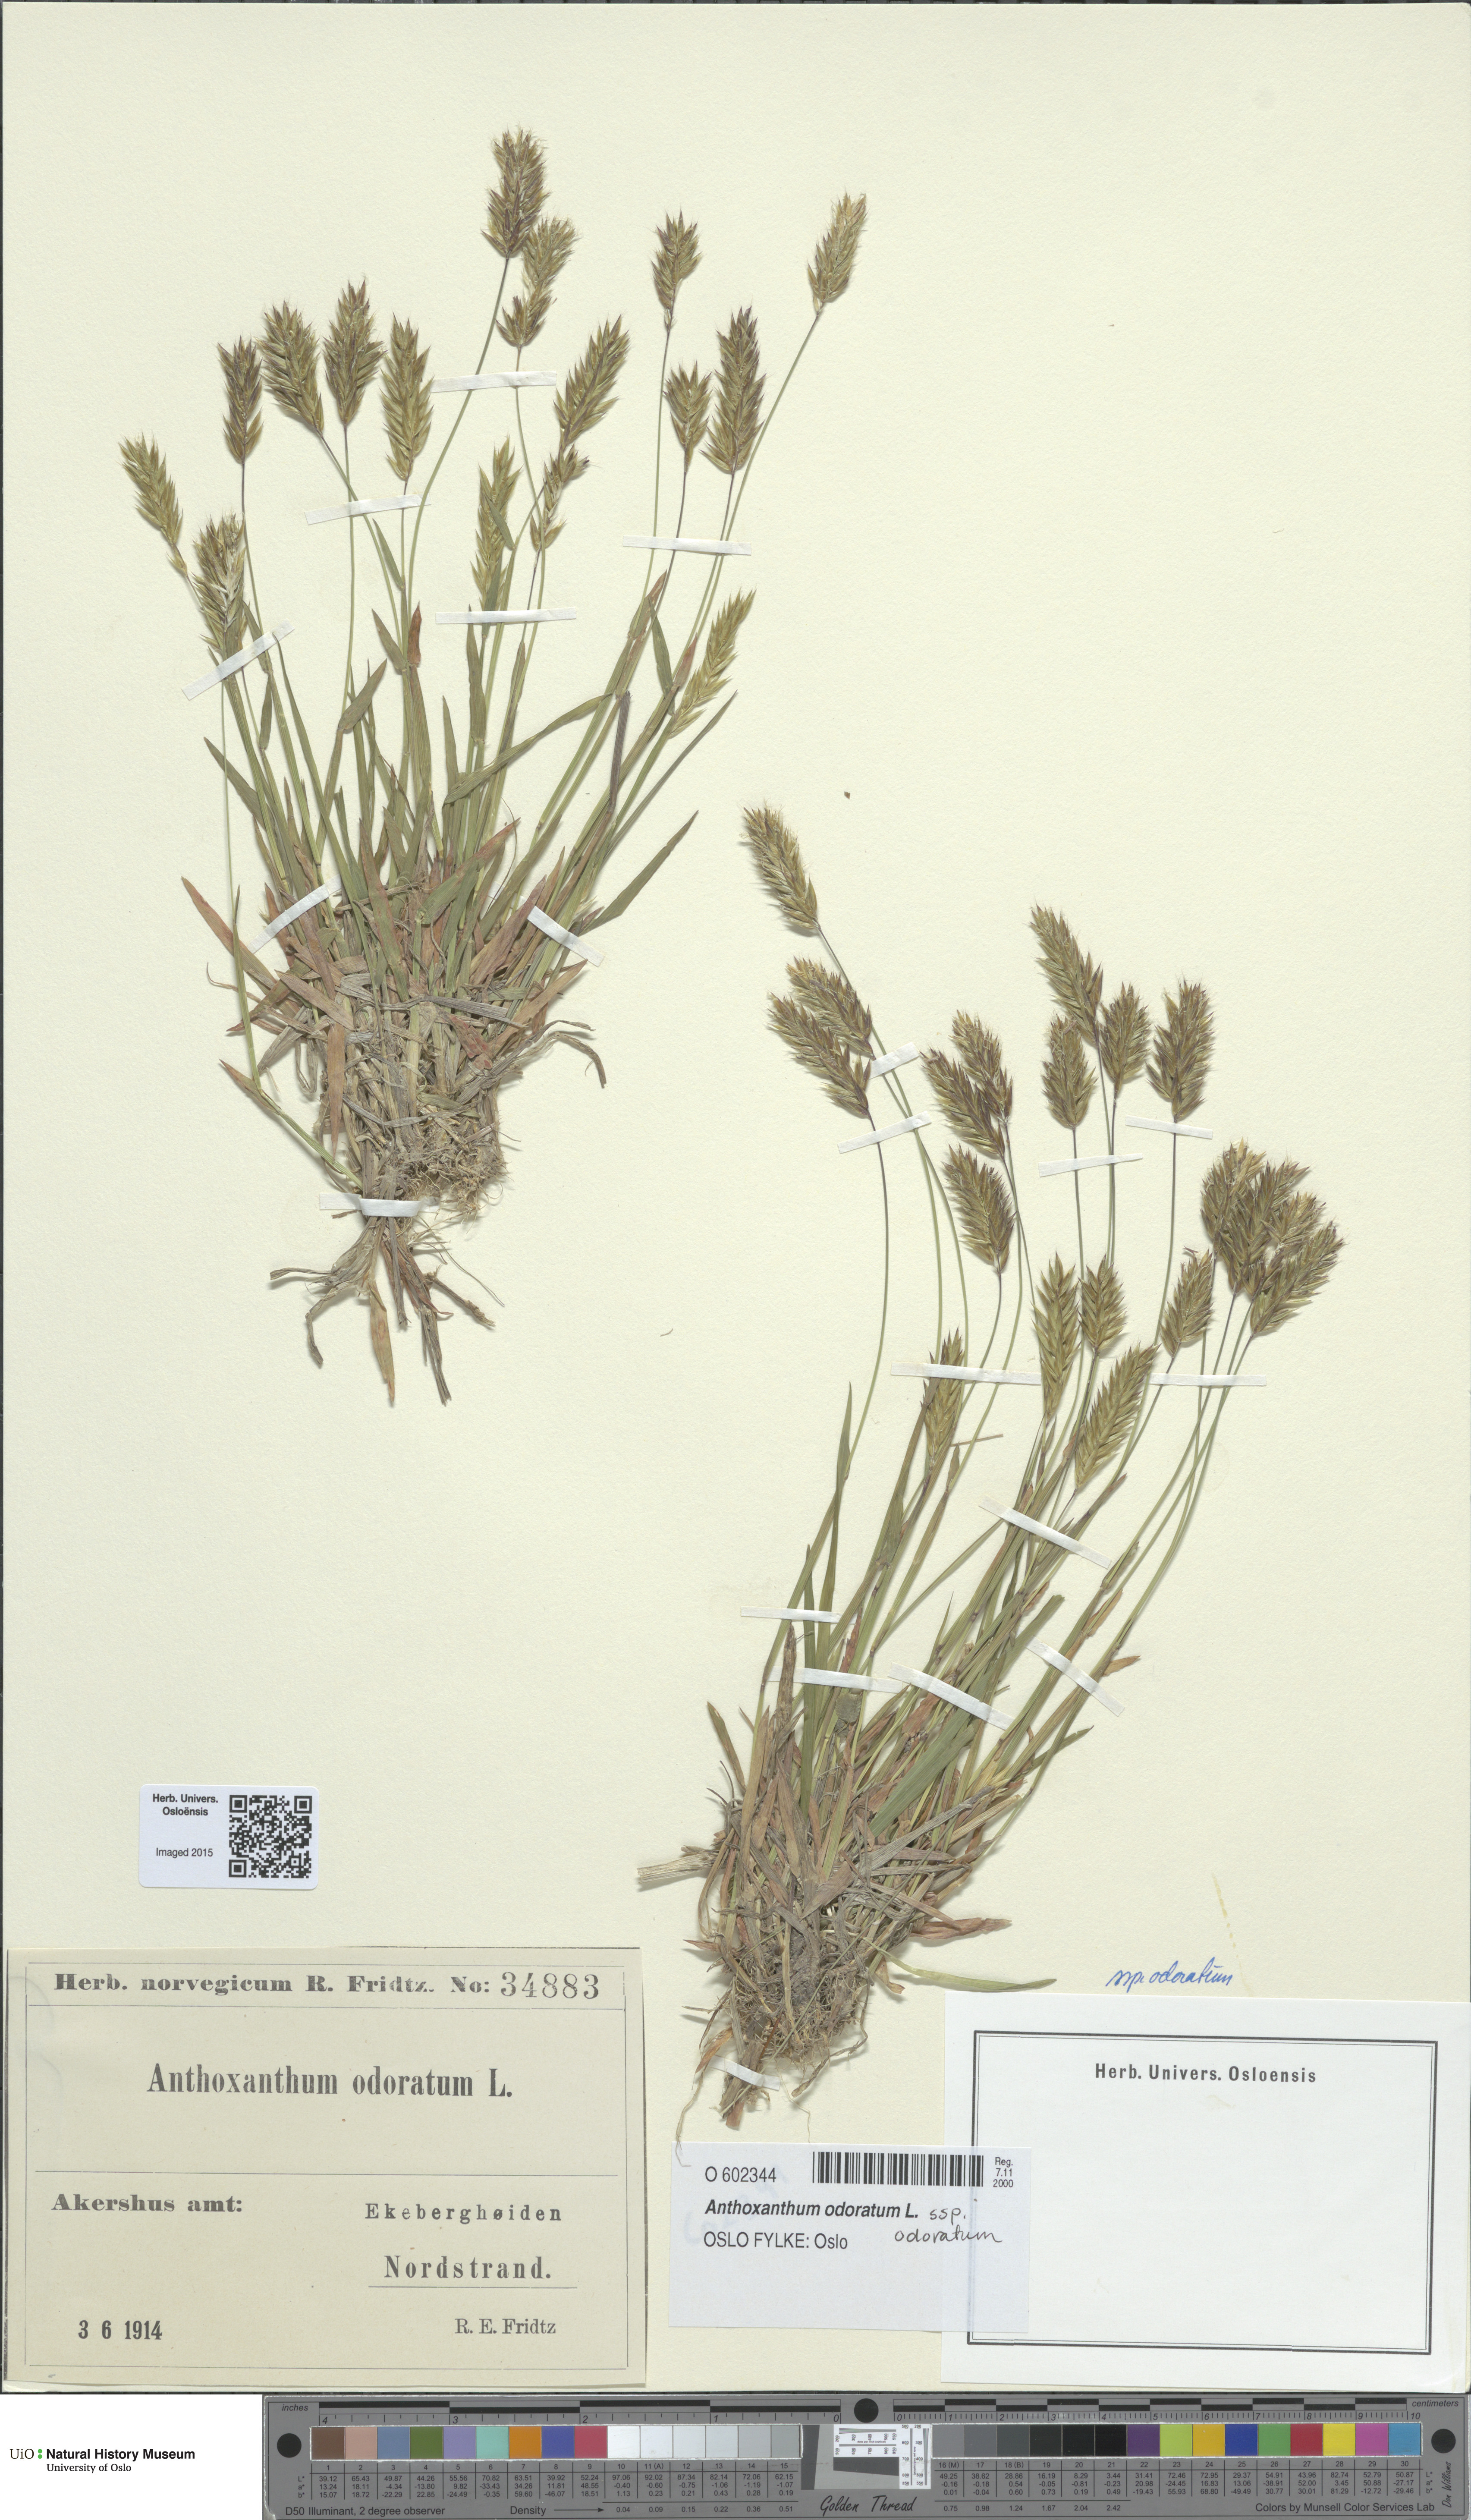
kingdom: Plantae
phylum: Tracheophyta
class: Liliopsida
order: Poales
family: Poaceae
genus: Anthoxanthum
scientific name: Anthoxanthum odoratum
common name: Sweet vernalgrass
